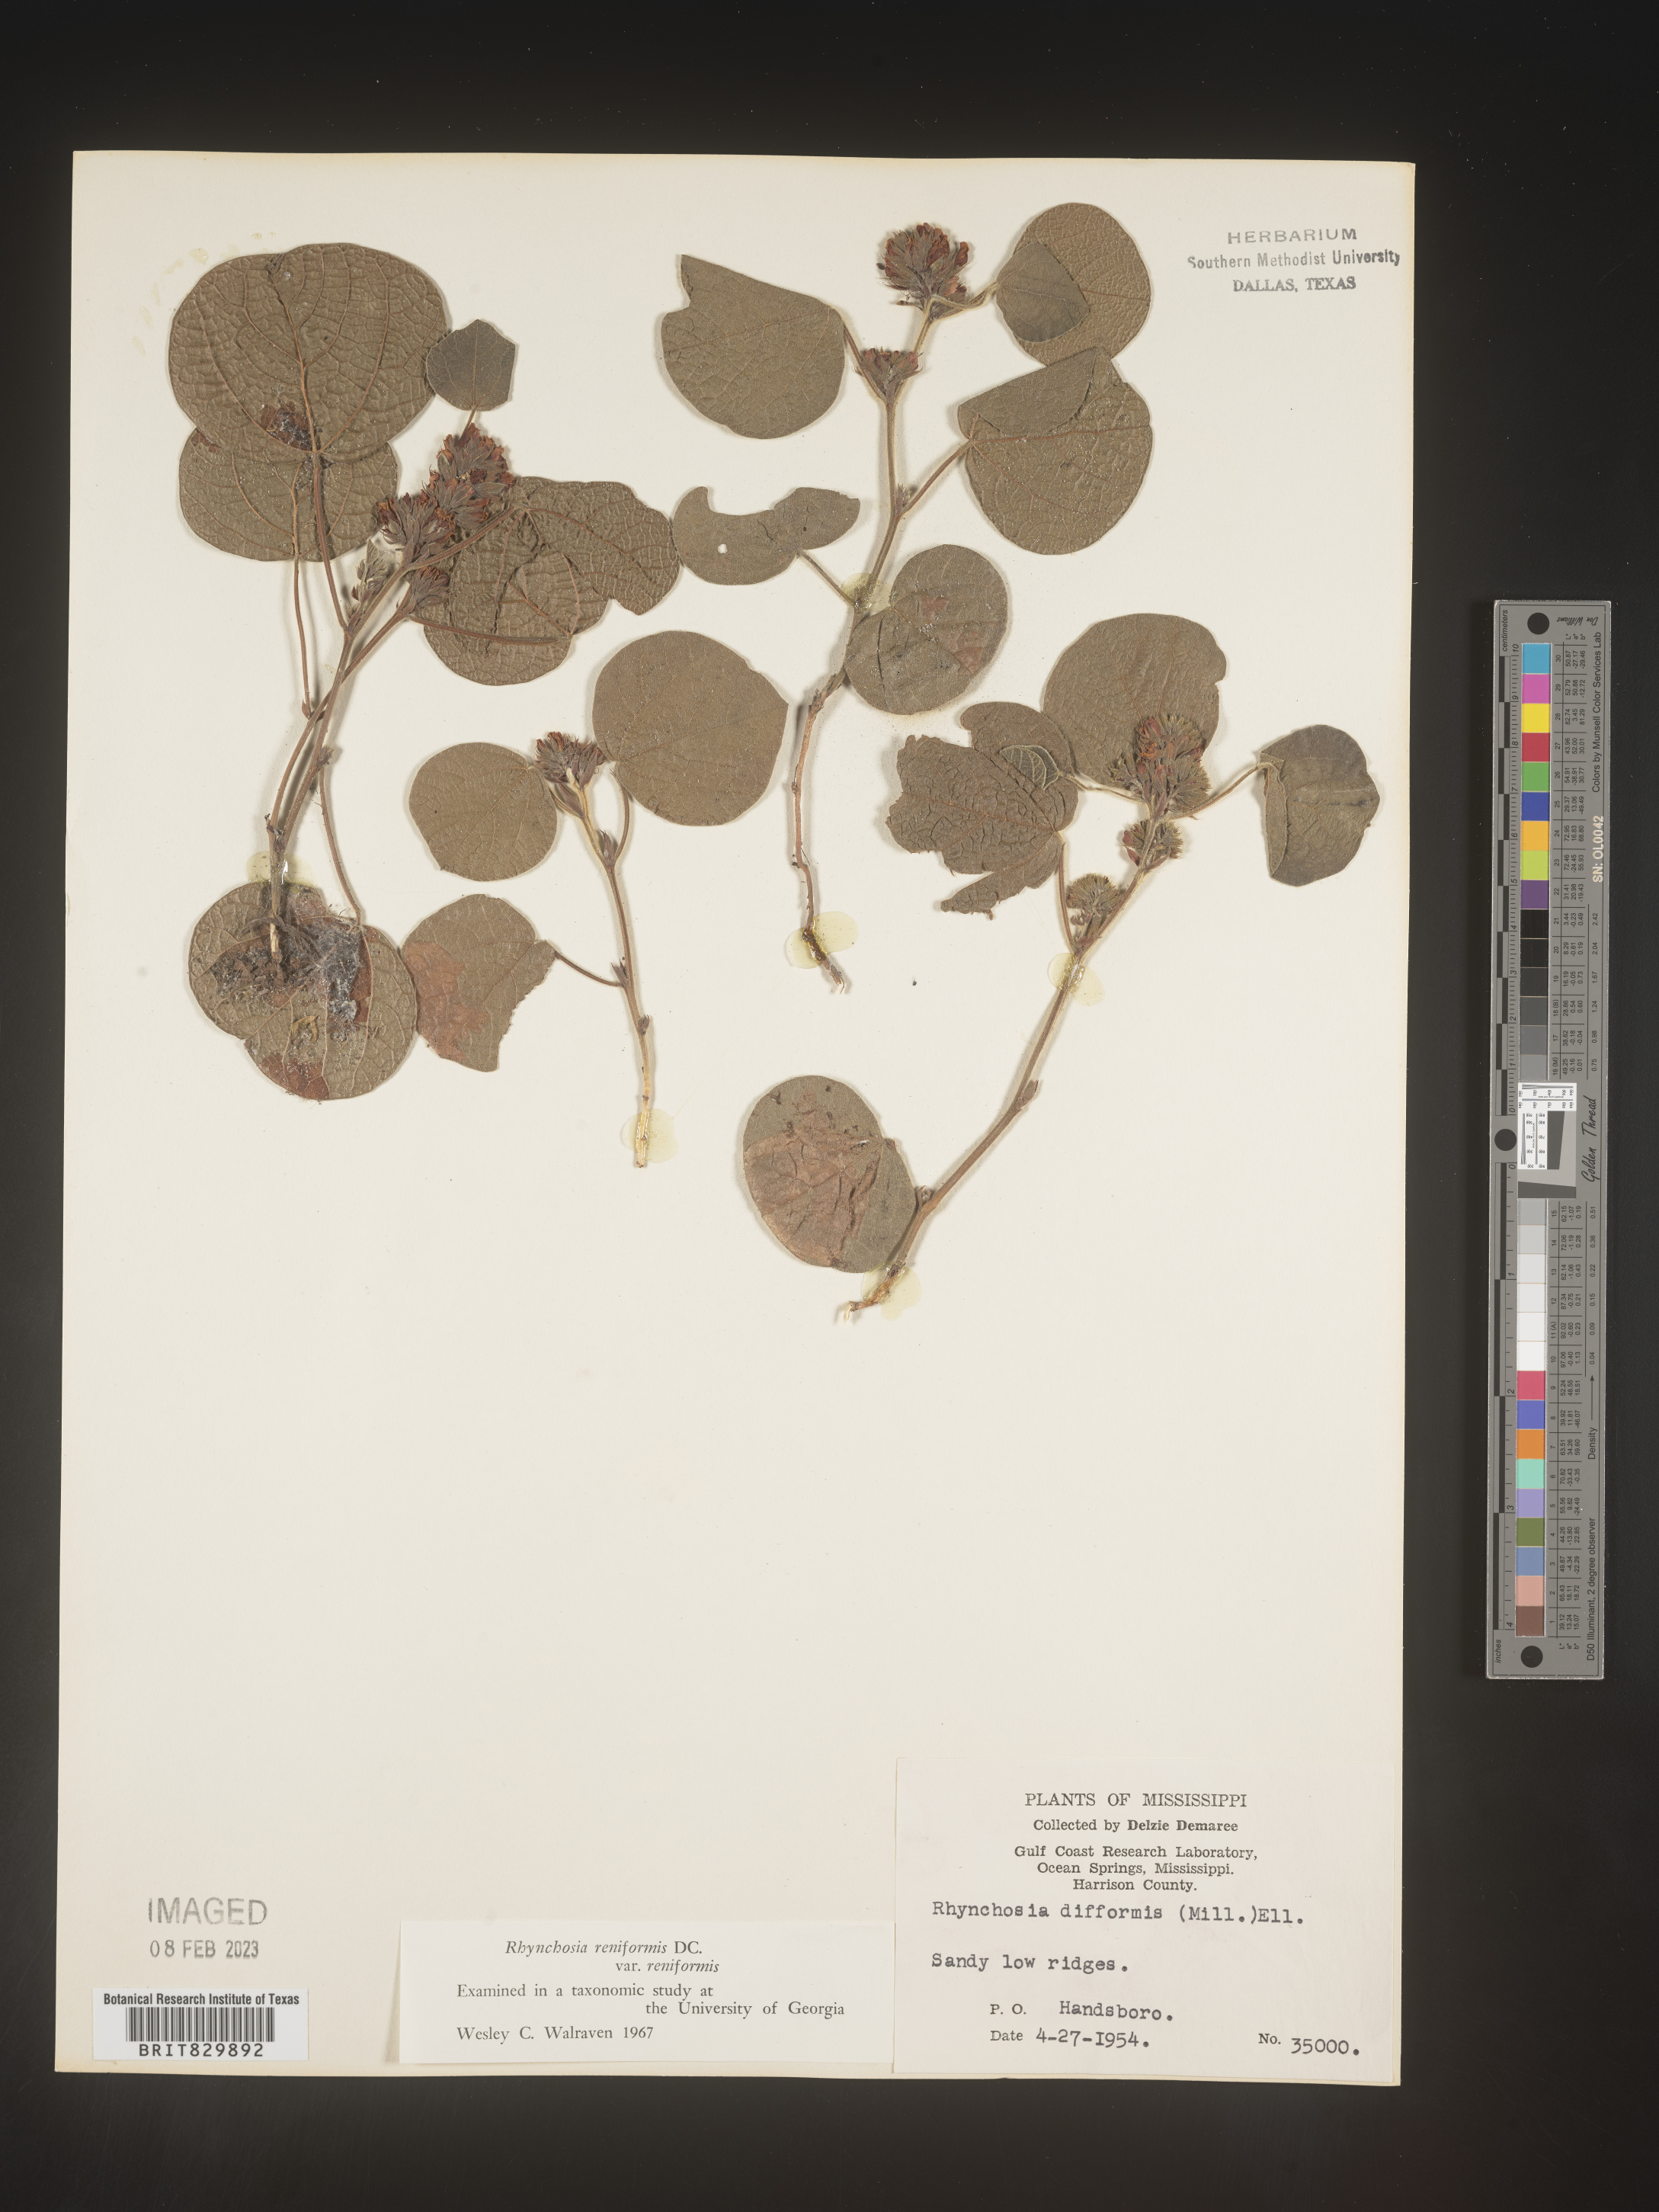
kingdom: Plantae
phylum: Tracheophyta
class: Magnoliopsida
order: Fabales
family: Fabaceae
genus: Rhynchosia
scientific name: Rhynchosia reniformis
